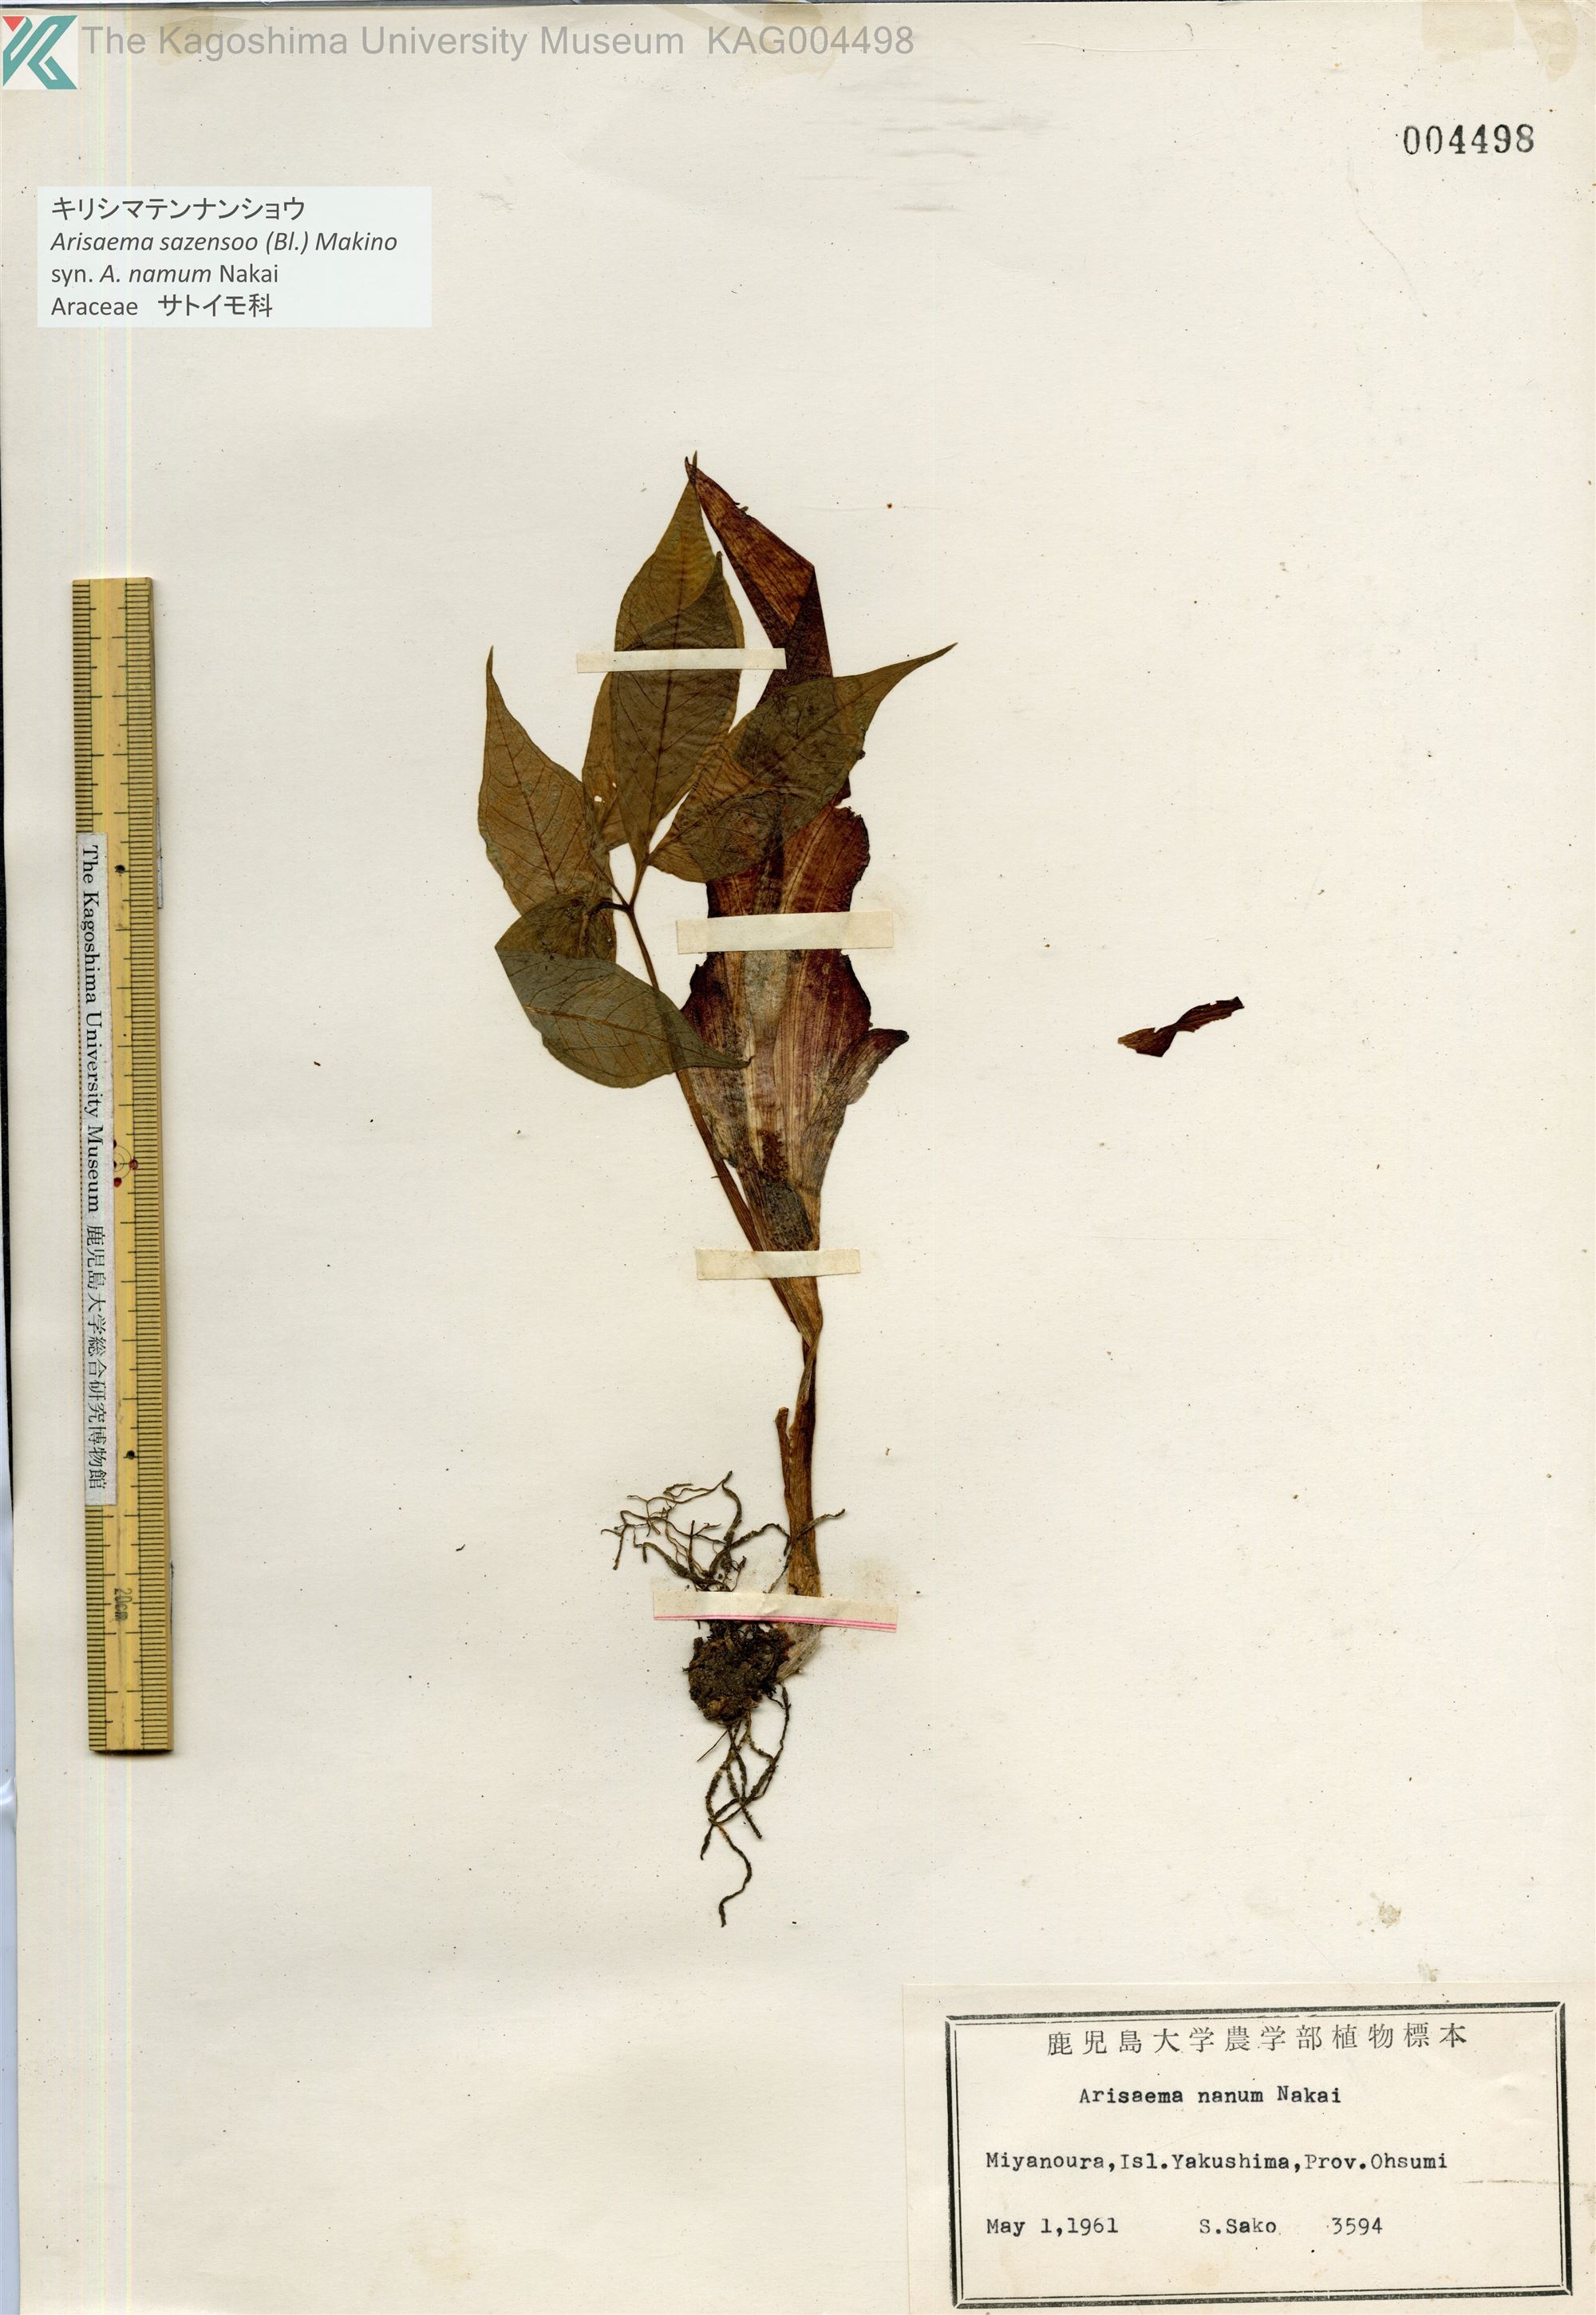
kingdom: Plantae
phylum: Tracheophyta
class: Liliopsida
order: Alismatales
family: Araceae
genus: Arisaema
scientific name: Arisaema sazensoo
